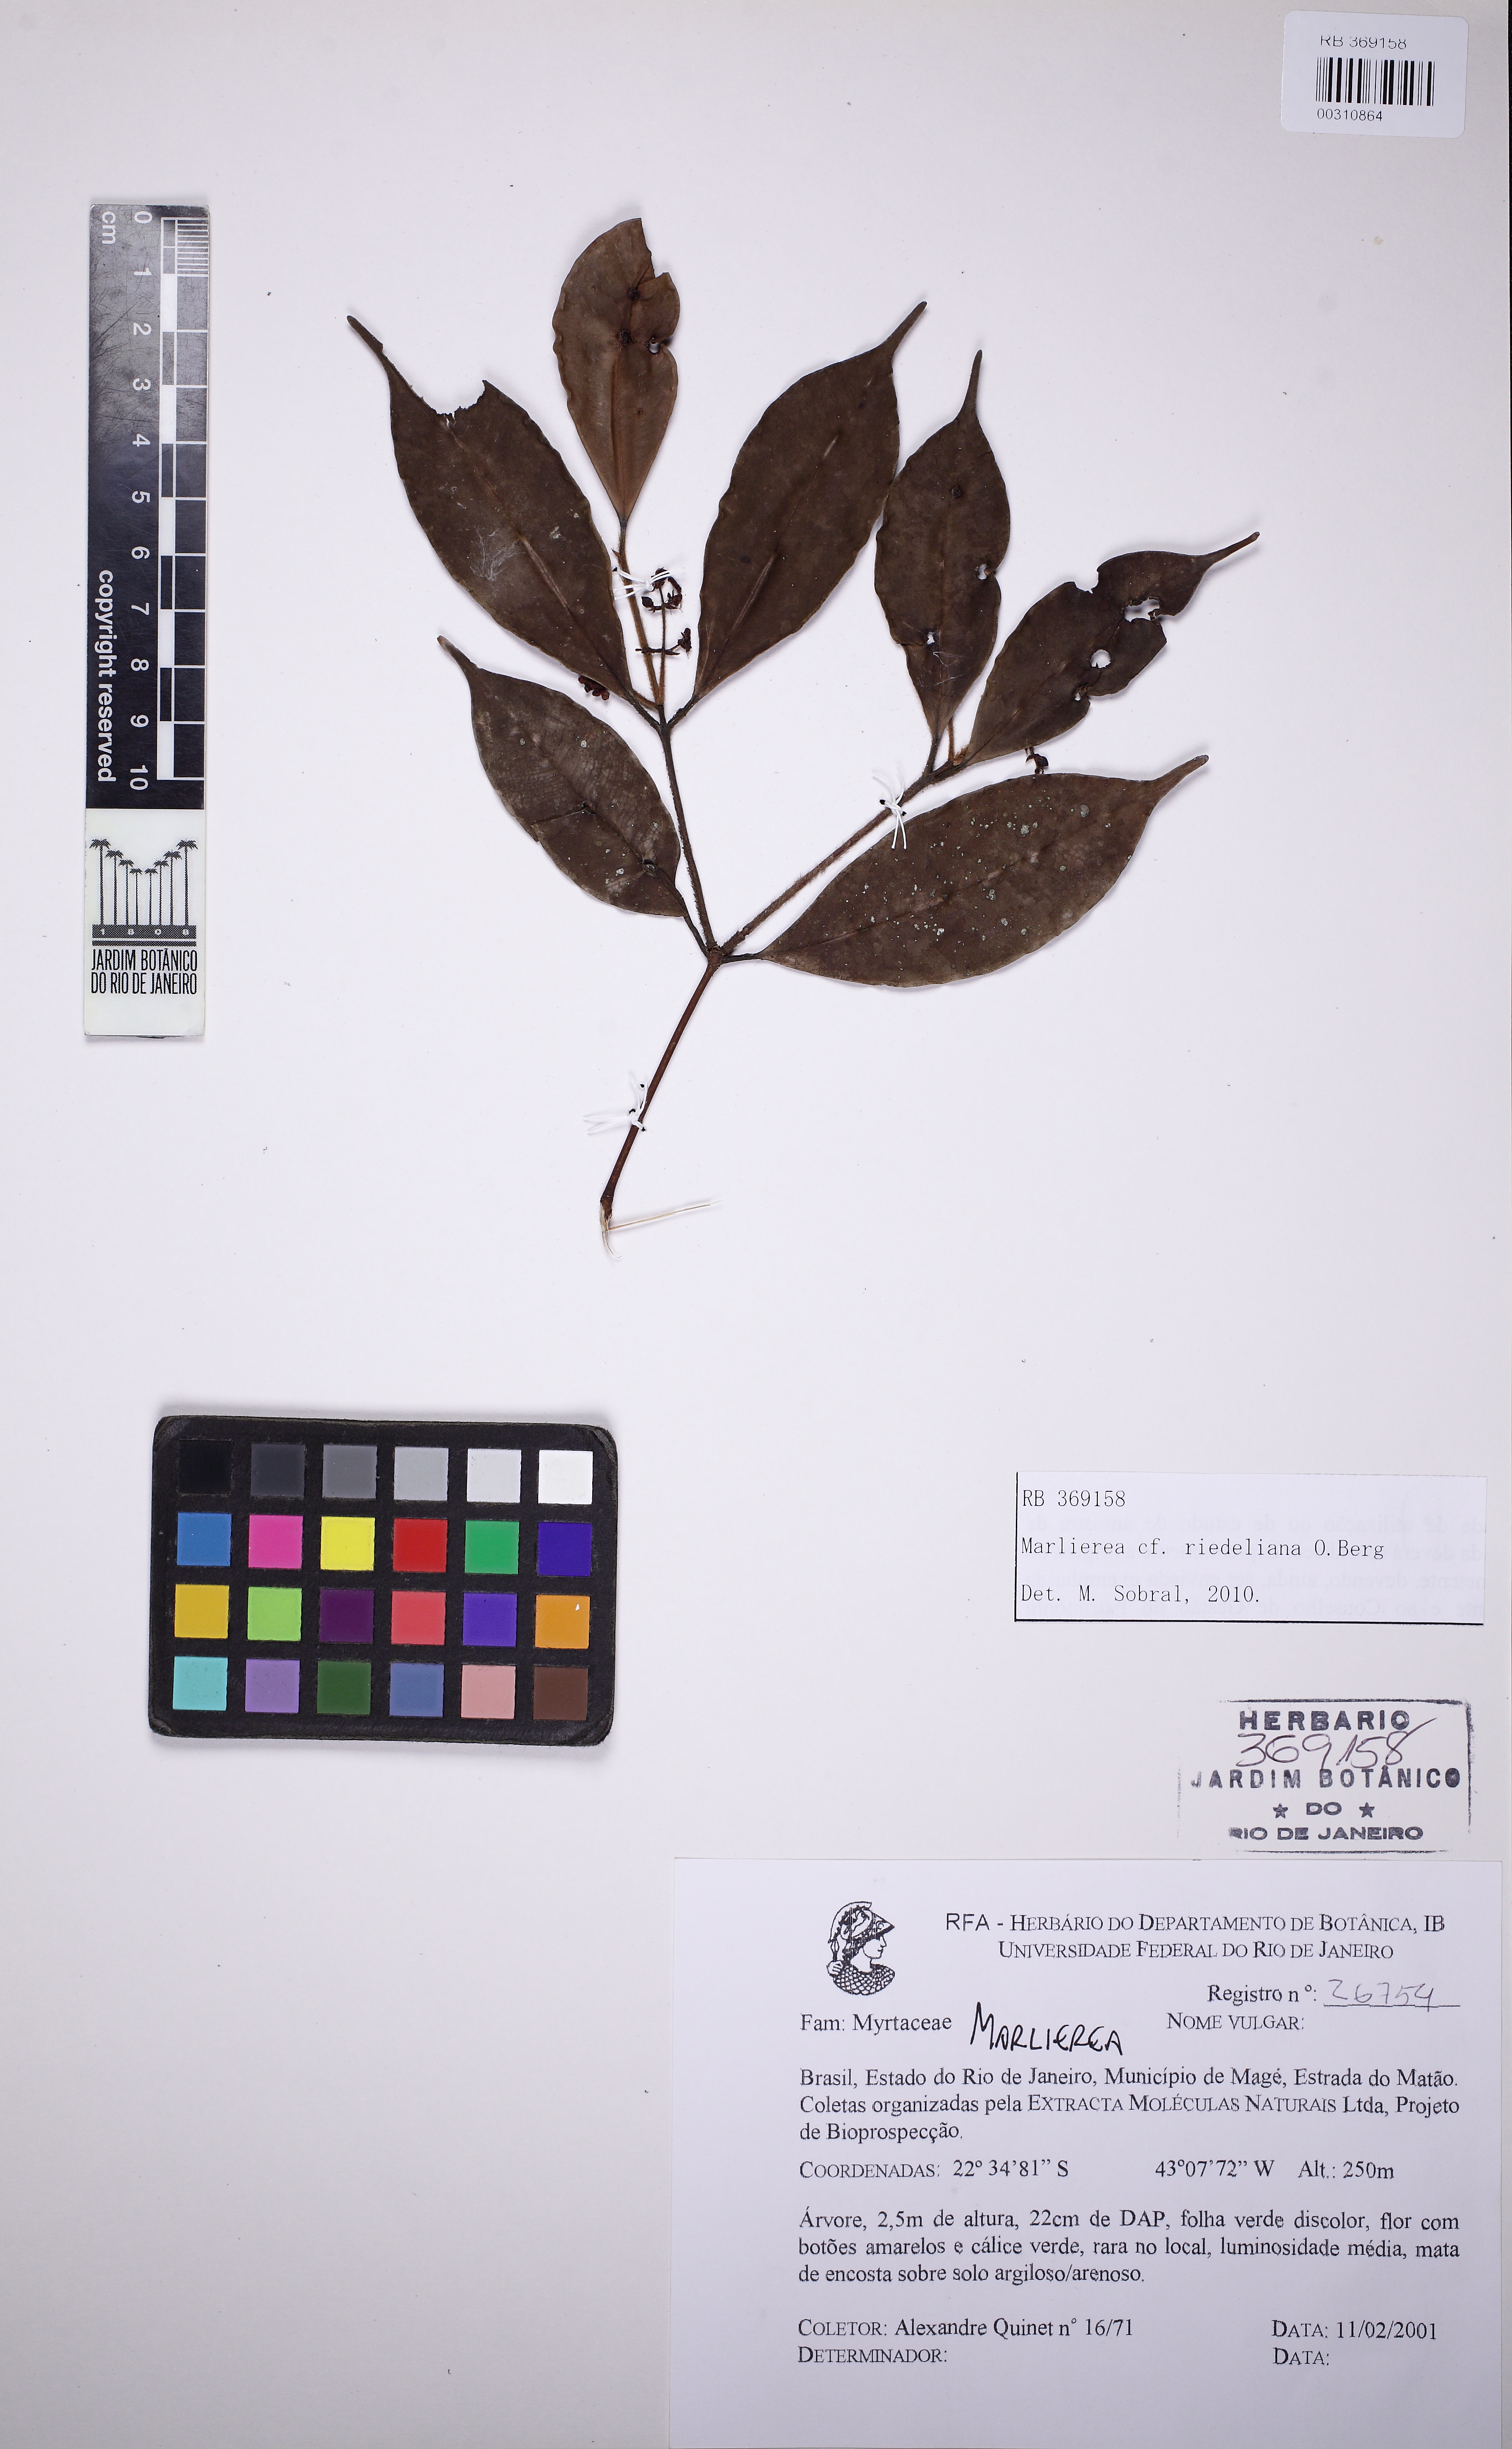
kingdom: Plantae
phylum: Tracheophyta
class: Magnoliopsida
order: Myrtales
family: Myrtaceae
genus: Myrcia
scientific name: Myrcia neoriedeliana
